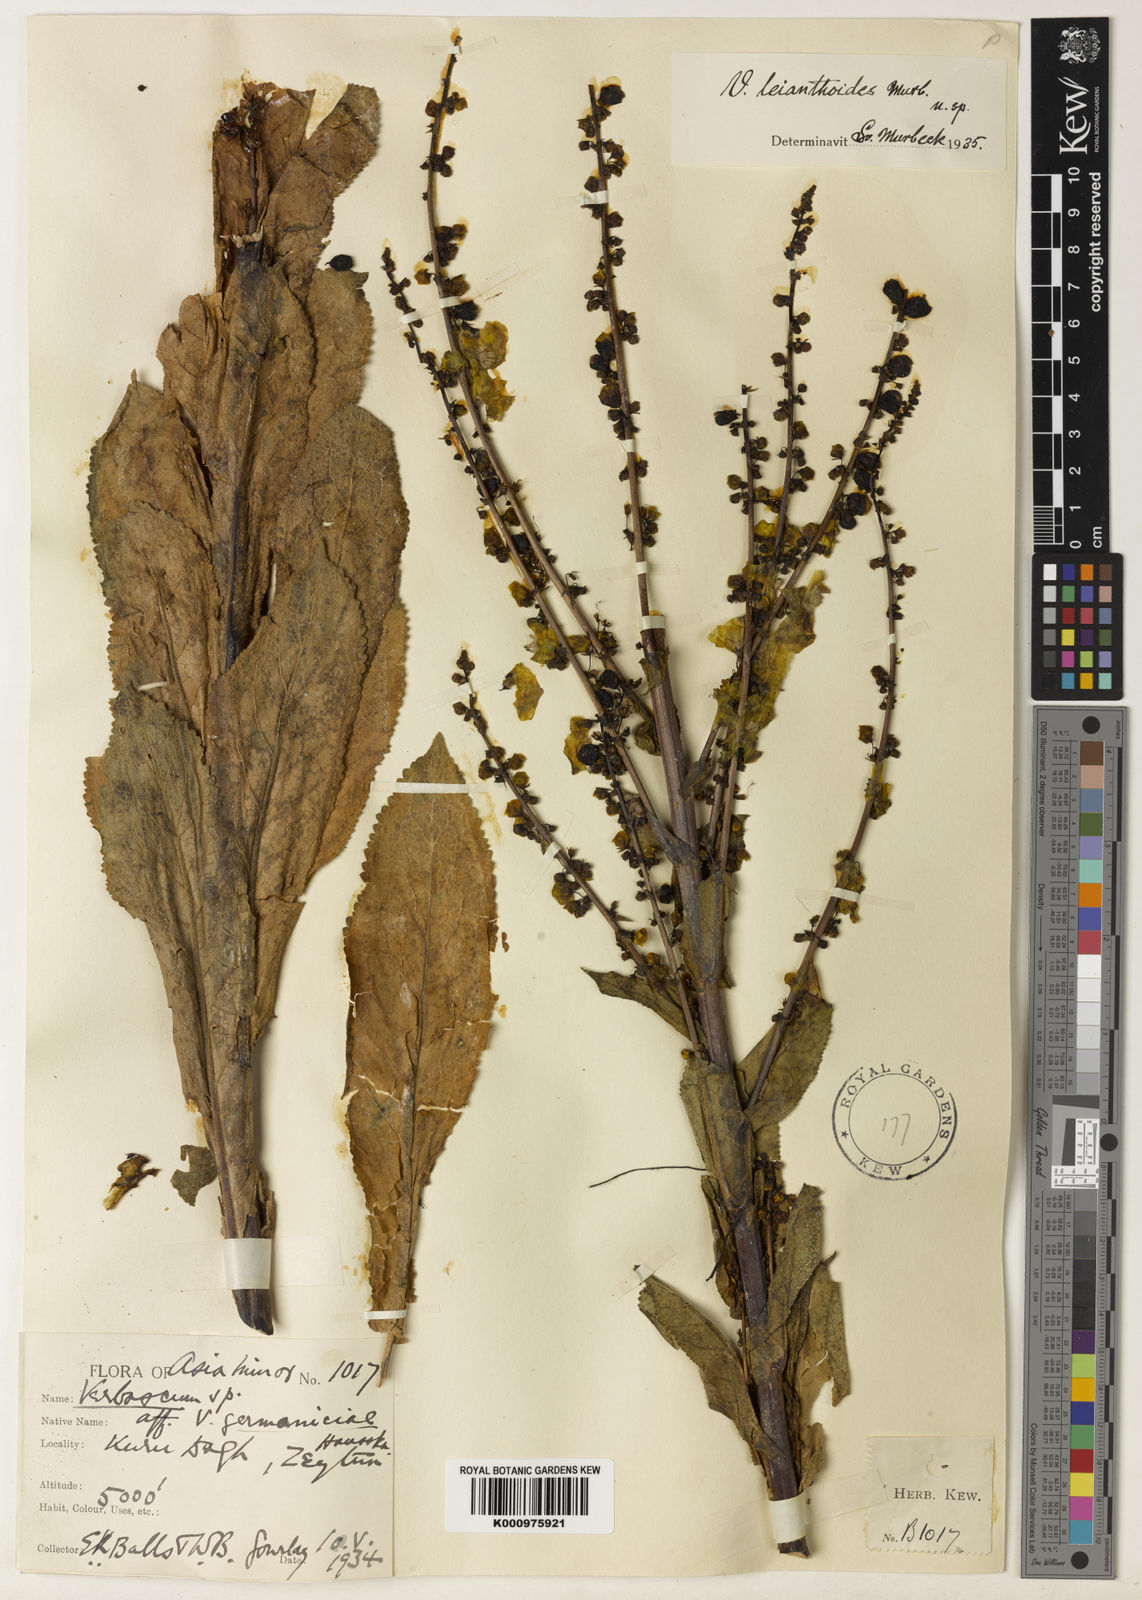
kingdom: Plantae
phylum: Tracheophyta
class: Magnoliopsida
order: Lamiales
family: Scrophulariaceae
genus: Verbascum
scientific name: Verbascum leianthoides
